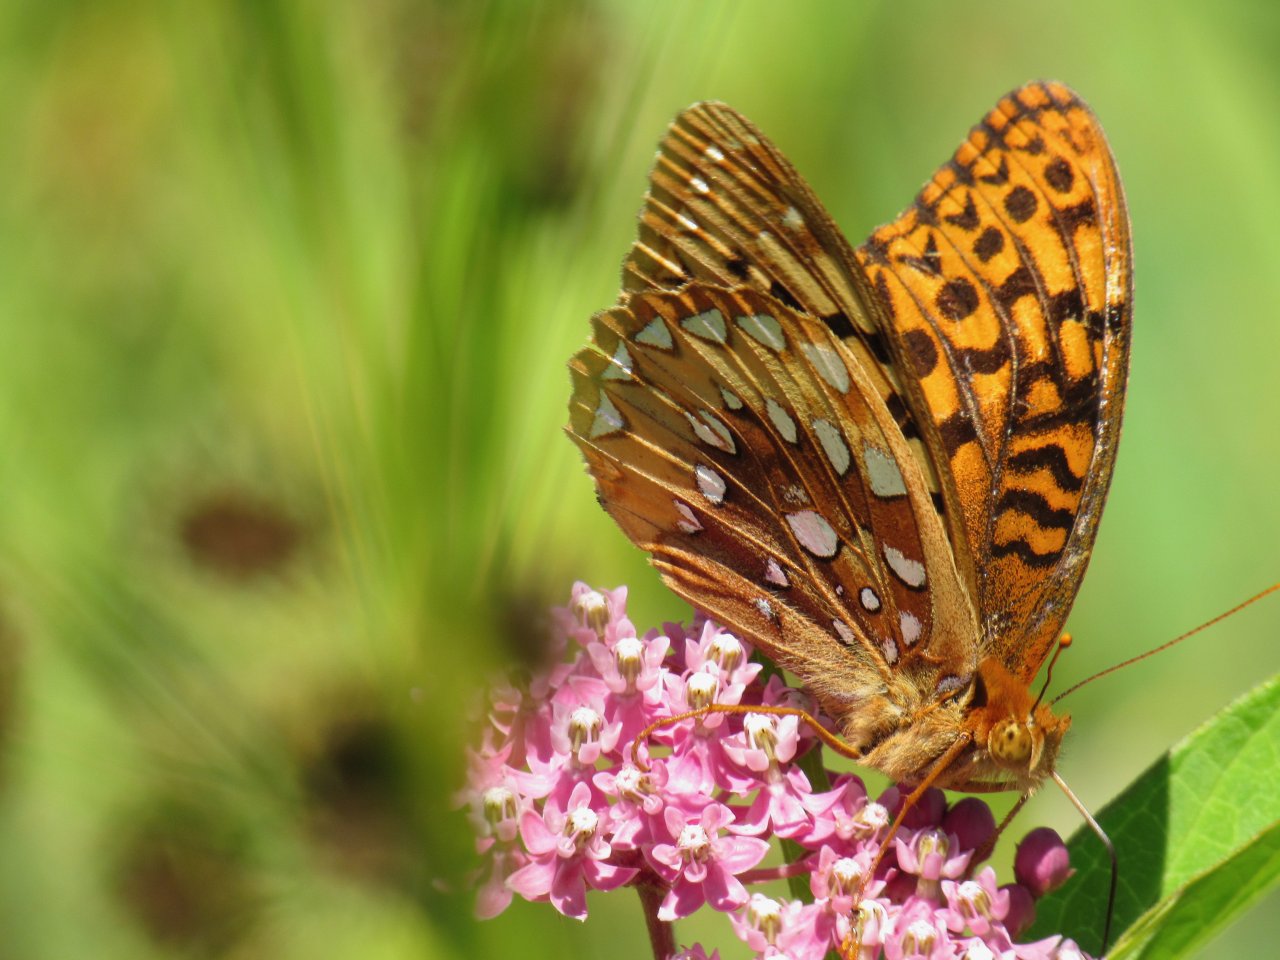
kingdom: Animalia
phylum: Arthropoda
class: Insecta
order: Lepidoptera
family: Nymphalidae
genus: Speyeria
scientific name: Speyeria cybele
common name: Great Spangled Fritillary
